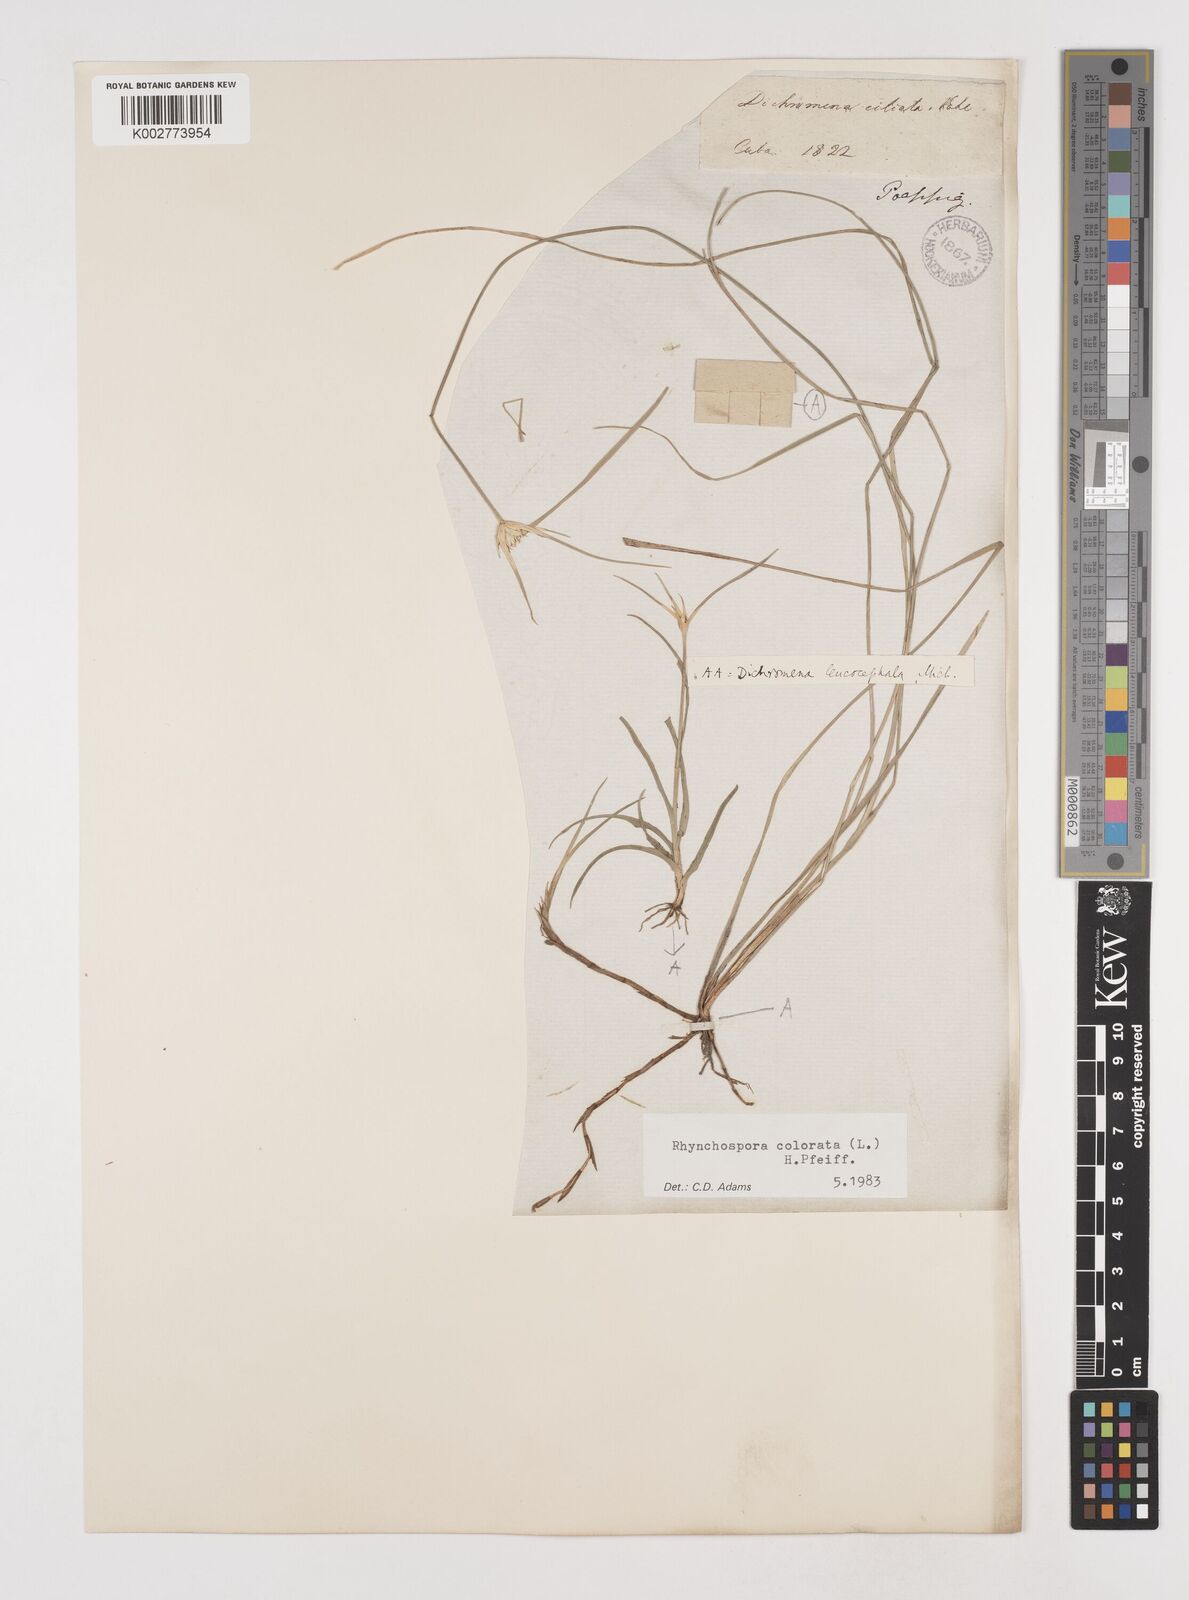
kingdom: Plantae
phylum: Tracheophyta
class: Liliopsida
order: Poales
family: Cyperaceae
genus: Rhynchospora
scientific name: Rhynchospora colorata
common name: Star sedge
